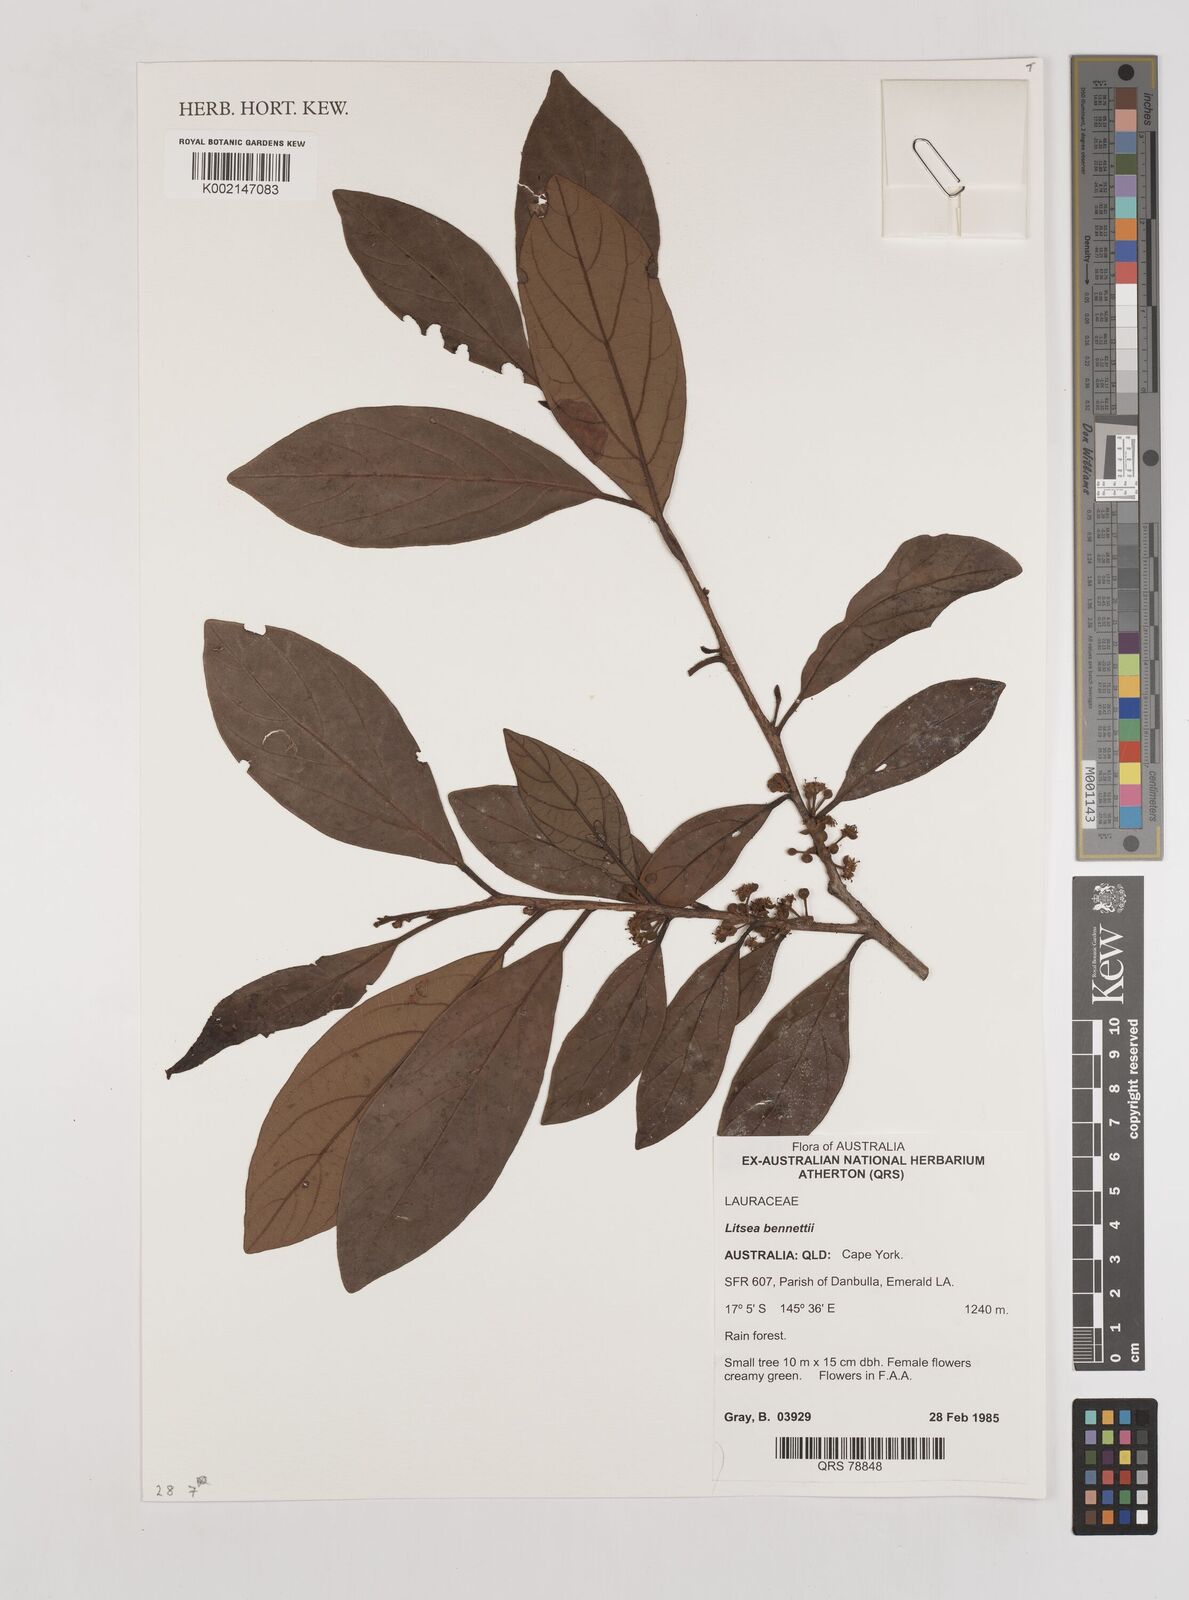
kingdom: Plantae
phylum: Tracheophyta
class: Magnoliopsida
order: Laurales
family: Lauraceae
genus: Litsea
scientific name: Litsea bennettii
